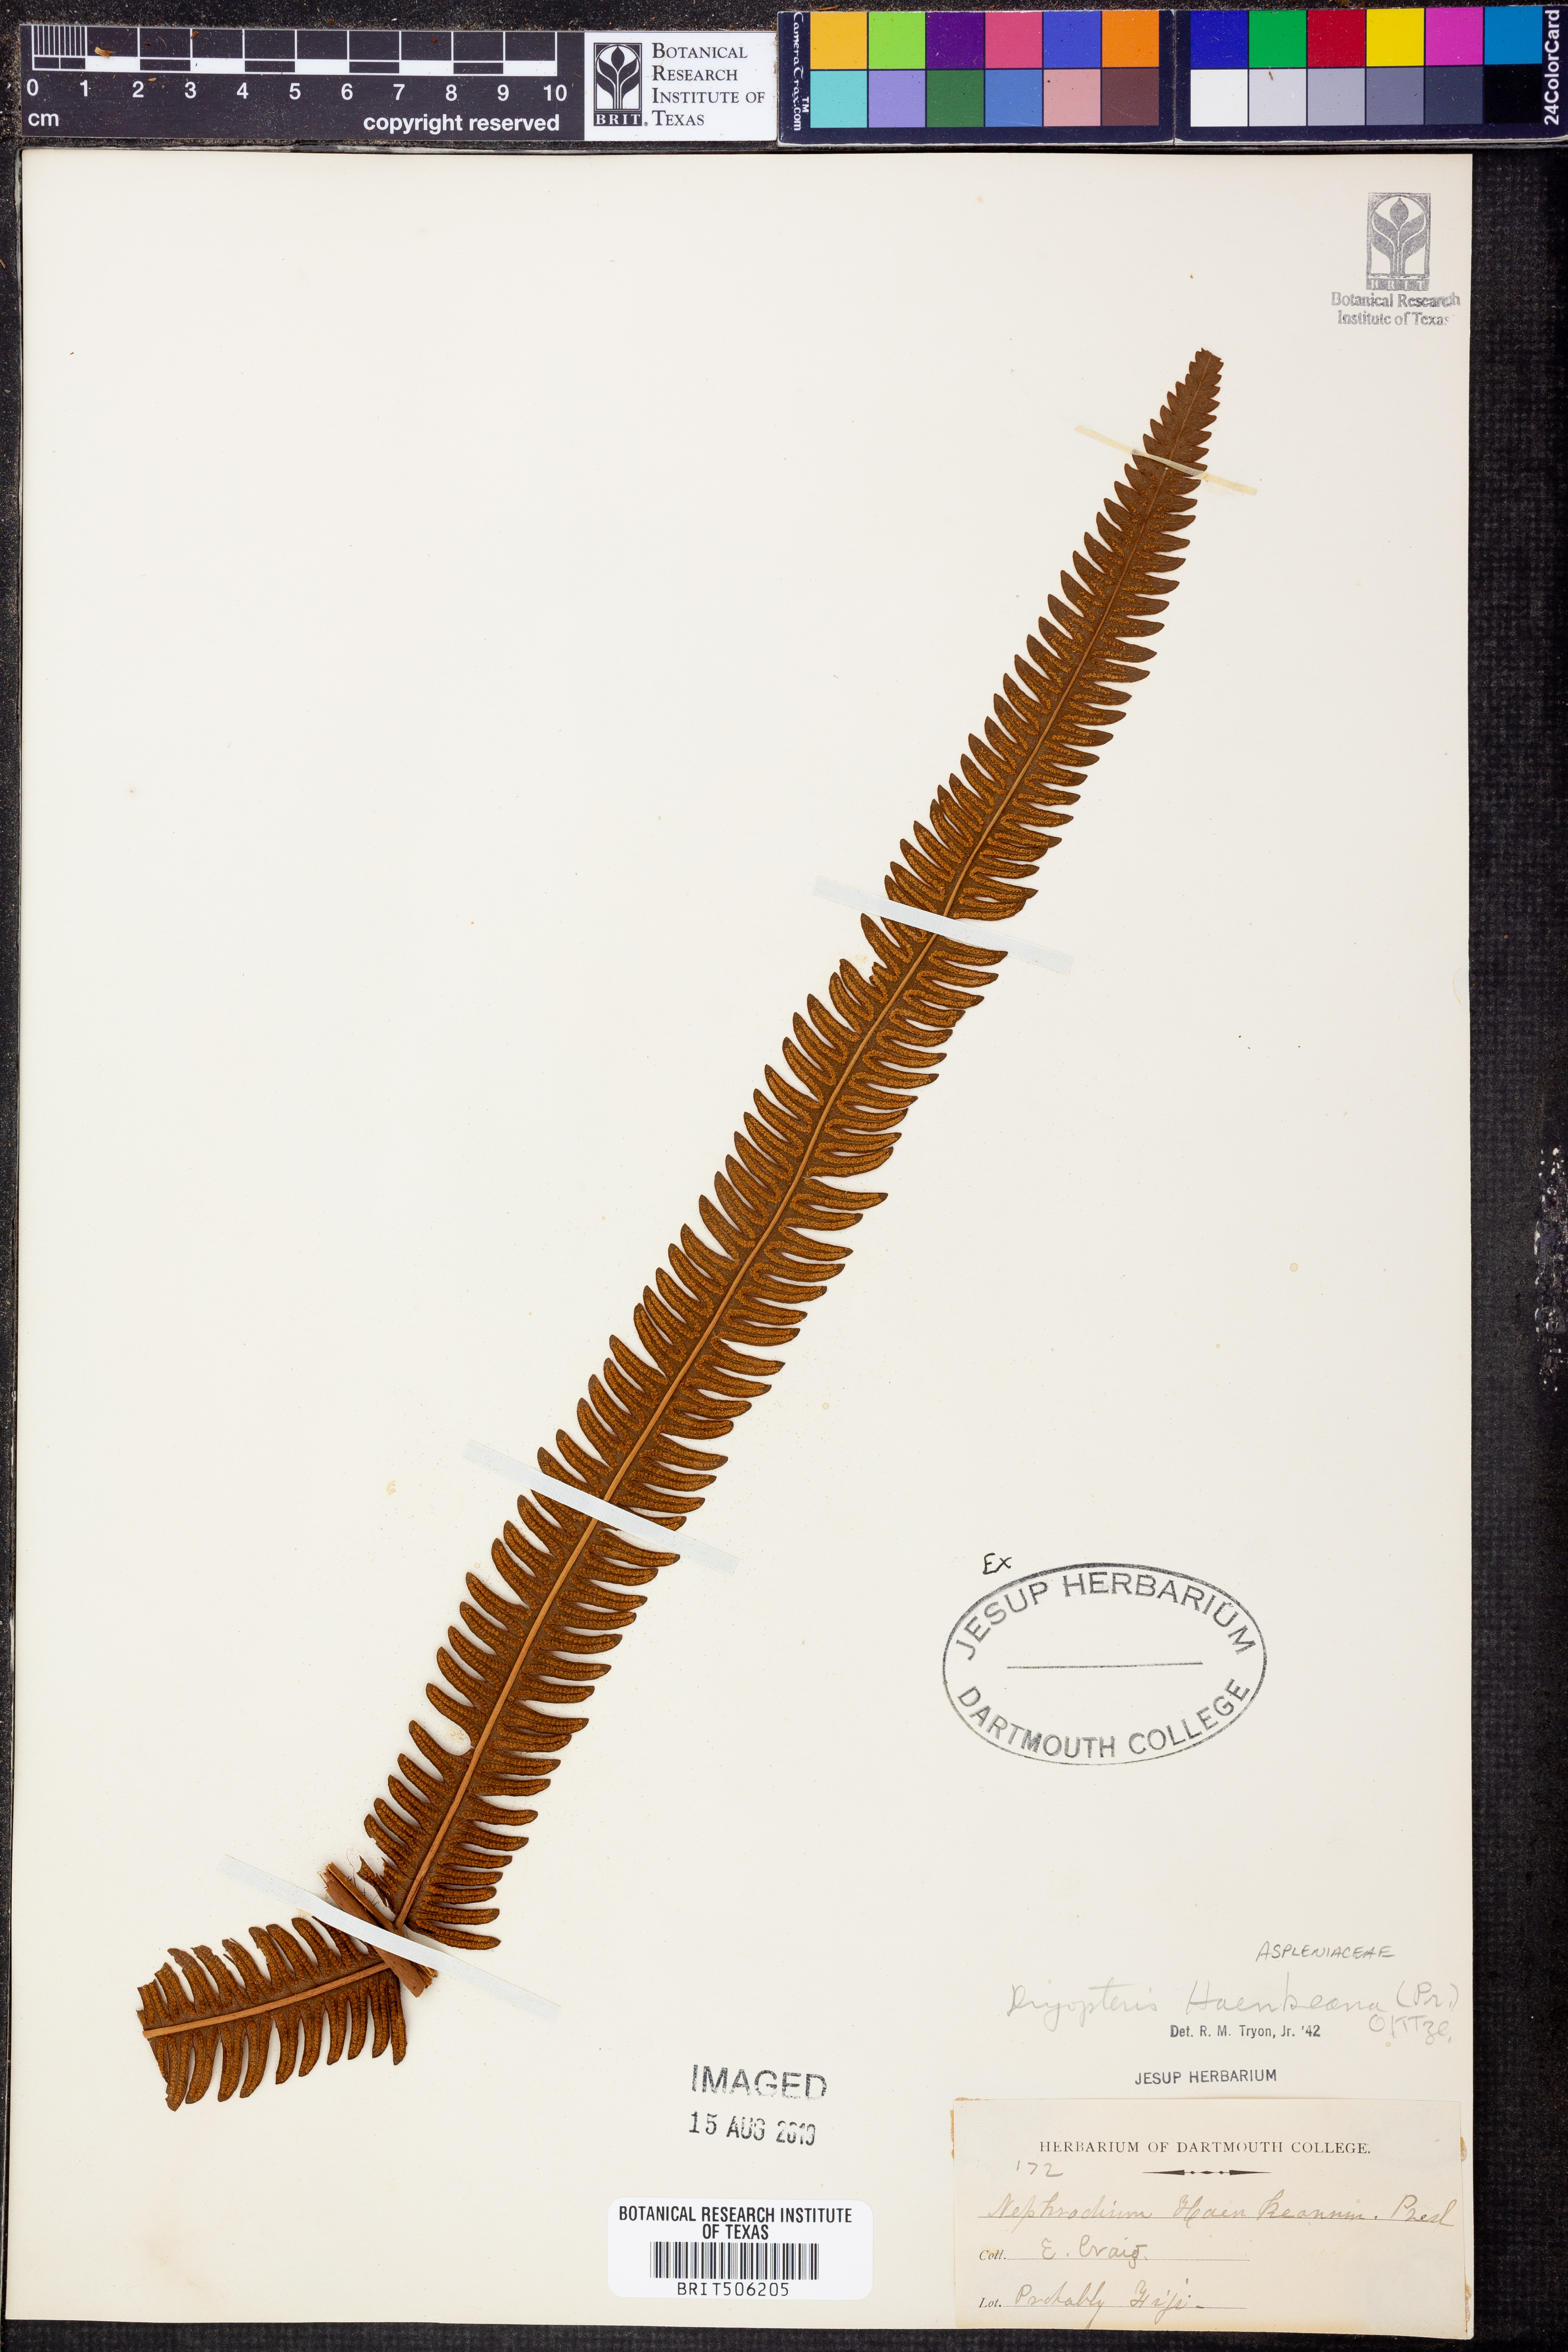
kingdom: Plantae
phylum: Tracheophyta
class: Polypodiopsida
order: Polypodiales
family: Thelypteridaceae
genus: Strophocaulon
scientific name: Strophocaulon unitum
